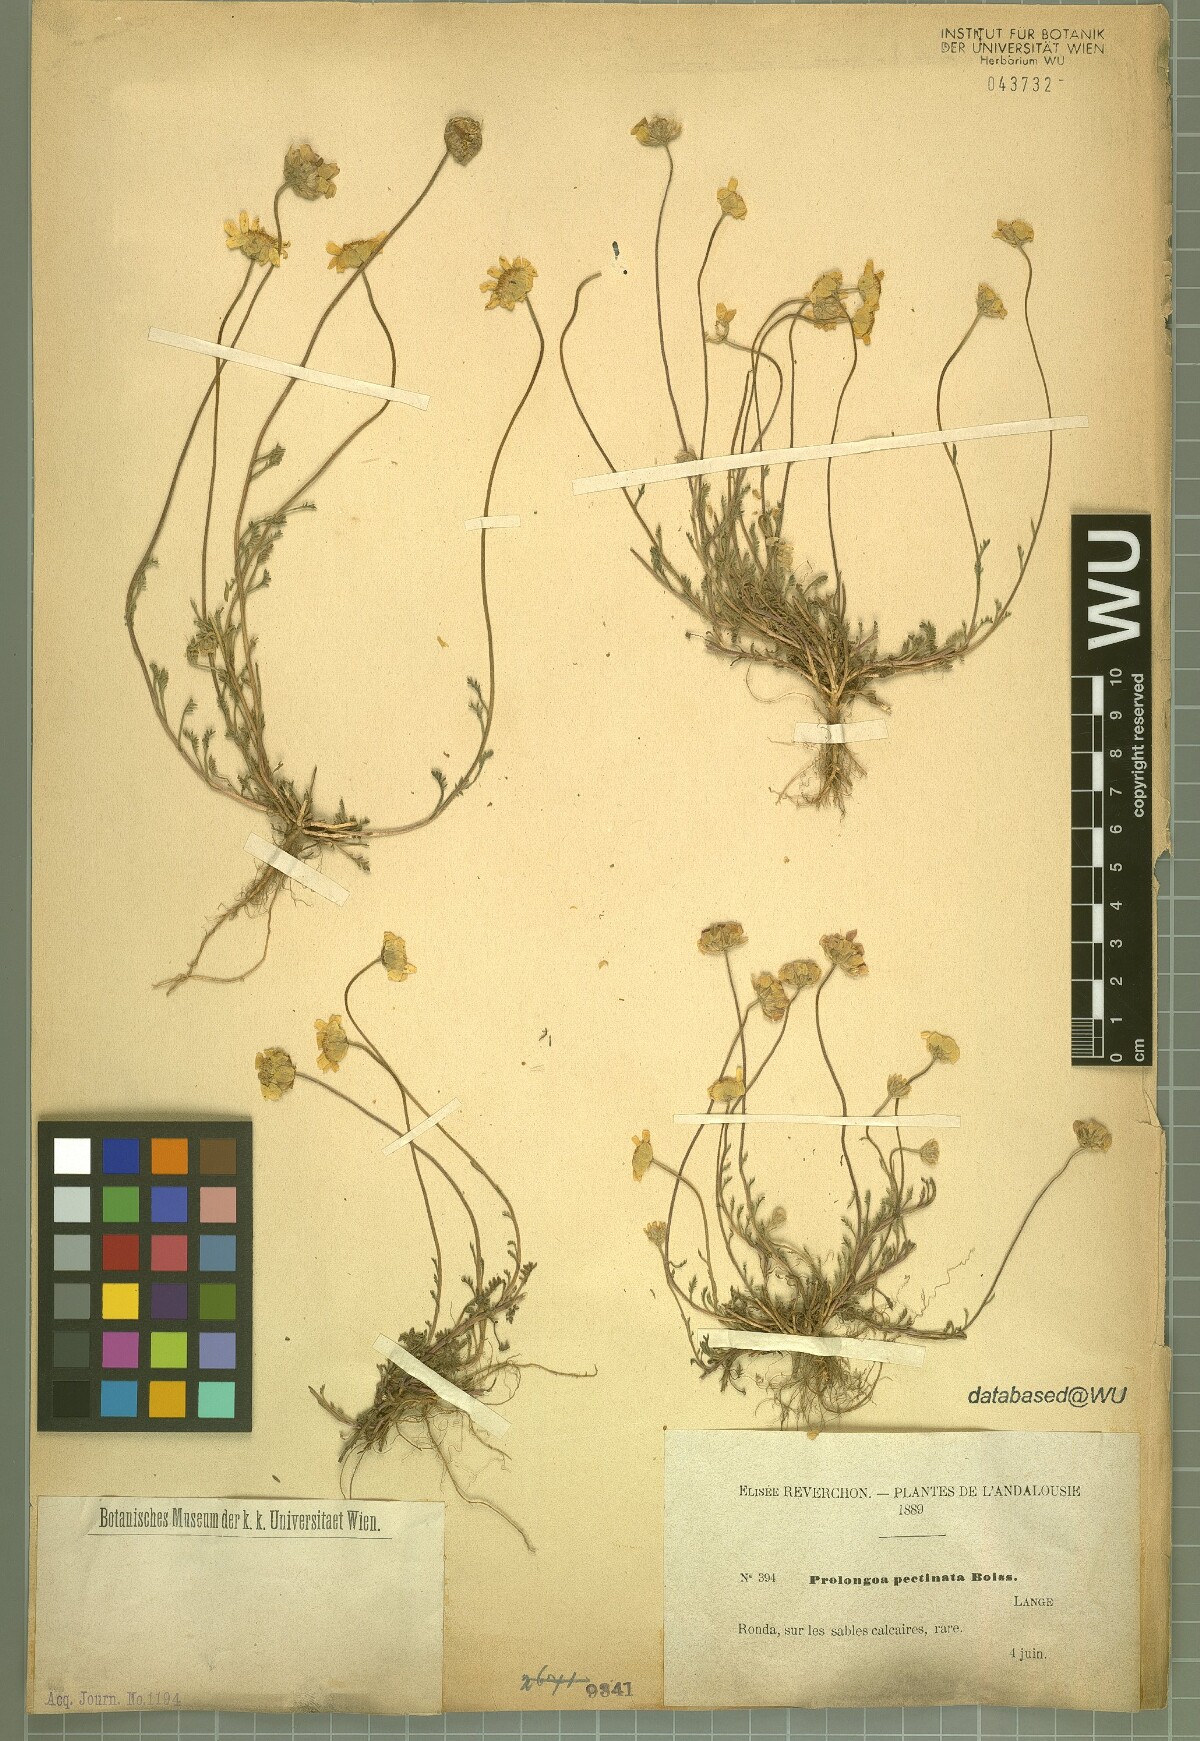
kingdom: Plantae
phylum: Tracheophyta
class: Magnoliopsida
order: Asterales
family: Asteraceae
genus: Leucanthemopsis
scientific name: Leucanthemopsis pectinata
